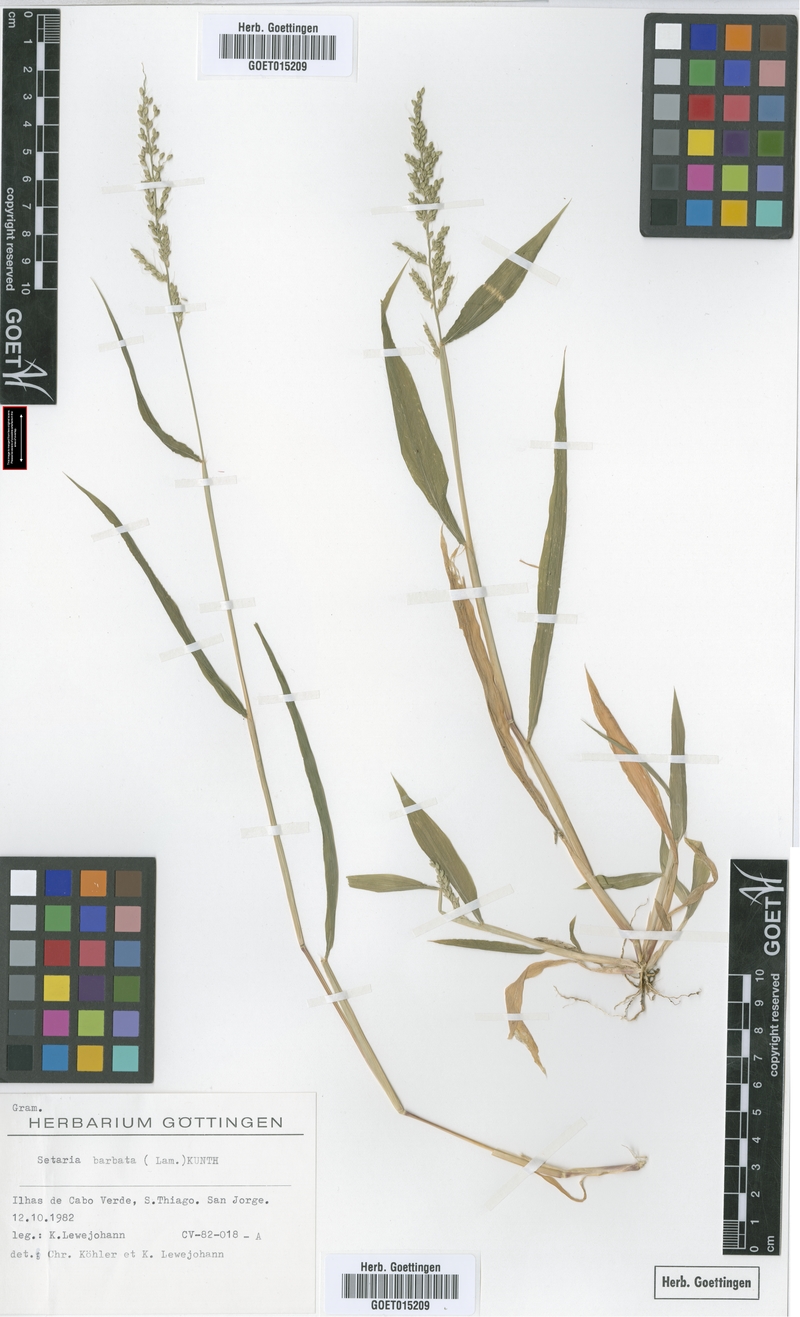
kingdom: Plantae
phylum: Tracheophyta
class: Liliopsida
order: Poales
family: Poaceae
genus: Setaria
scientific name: Setaria barbata
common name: East indian bristlegrass
